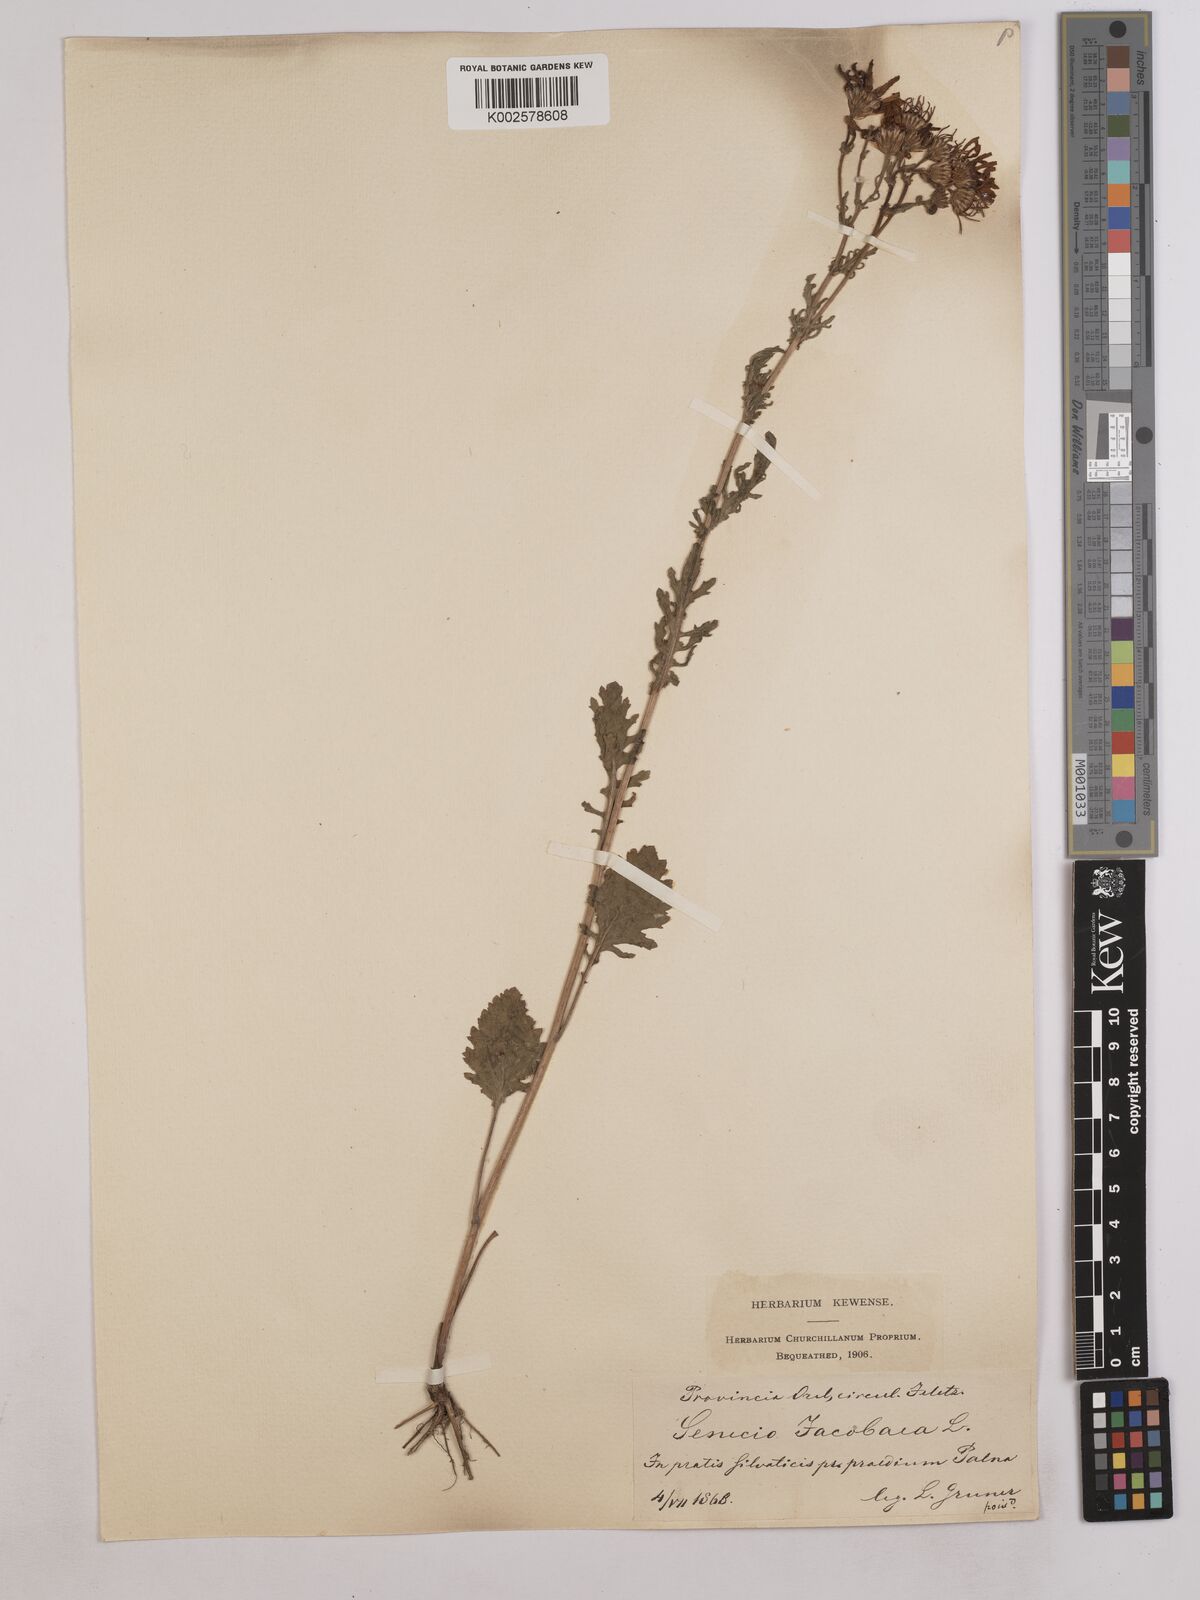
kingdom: Plantae
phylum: Tracheophyta
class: Magnoliopsida
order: Asterales
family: Asteraceae
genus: Jacobaea
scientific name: Jacobaea vulgaris
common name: Stinking willie
